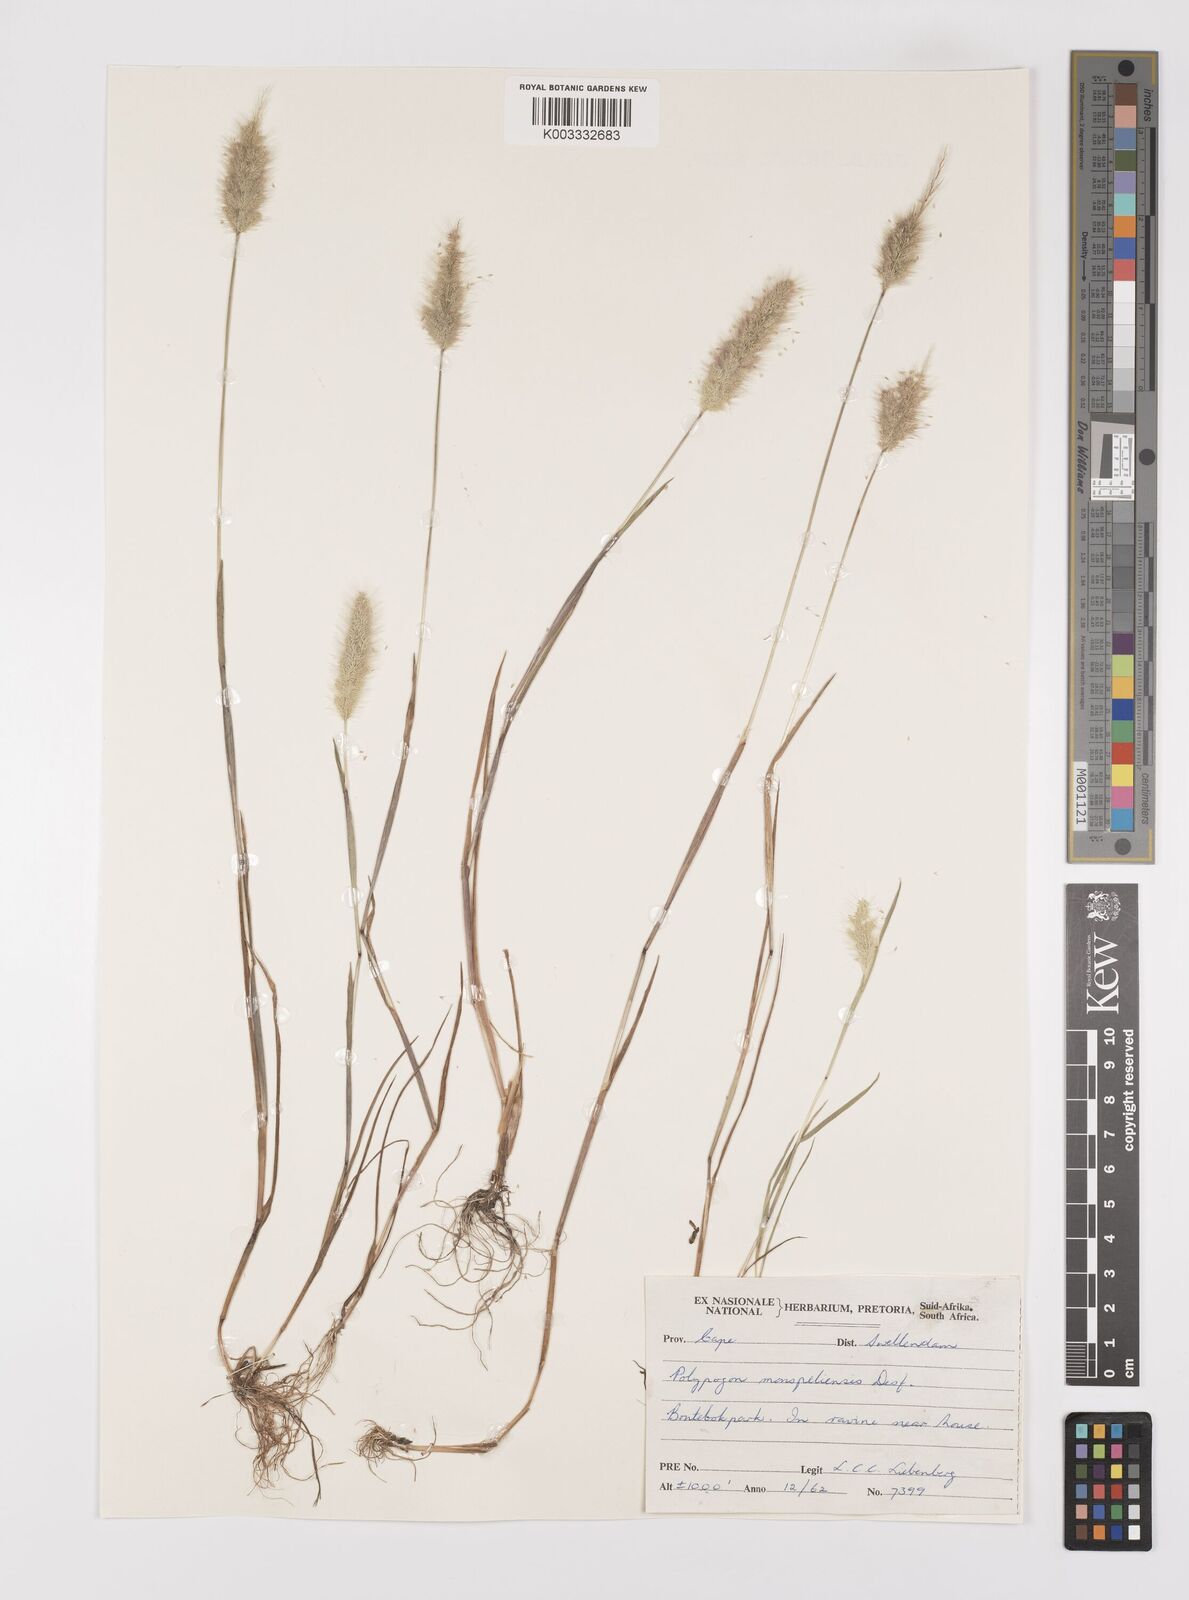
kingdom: Plantae
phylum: Tracheophyta
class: Liliopsida
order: Poales
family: Poaceae
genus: Polypogon
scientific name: Polypogon monspeliensis
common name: Annual rabbitsfoot grass
